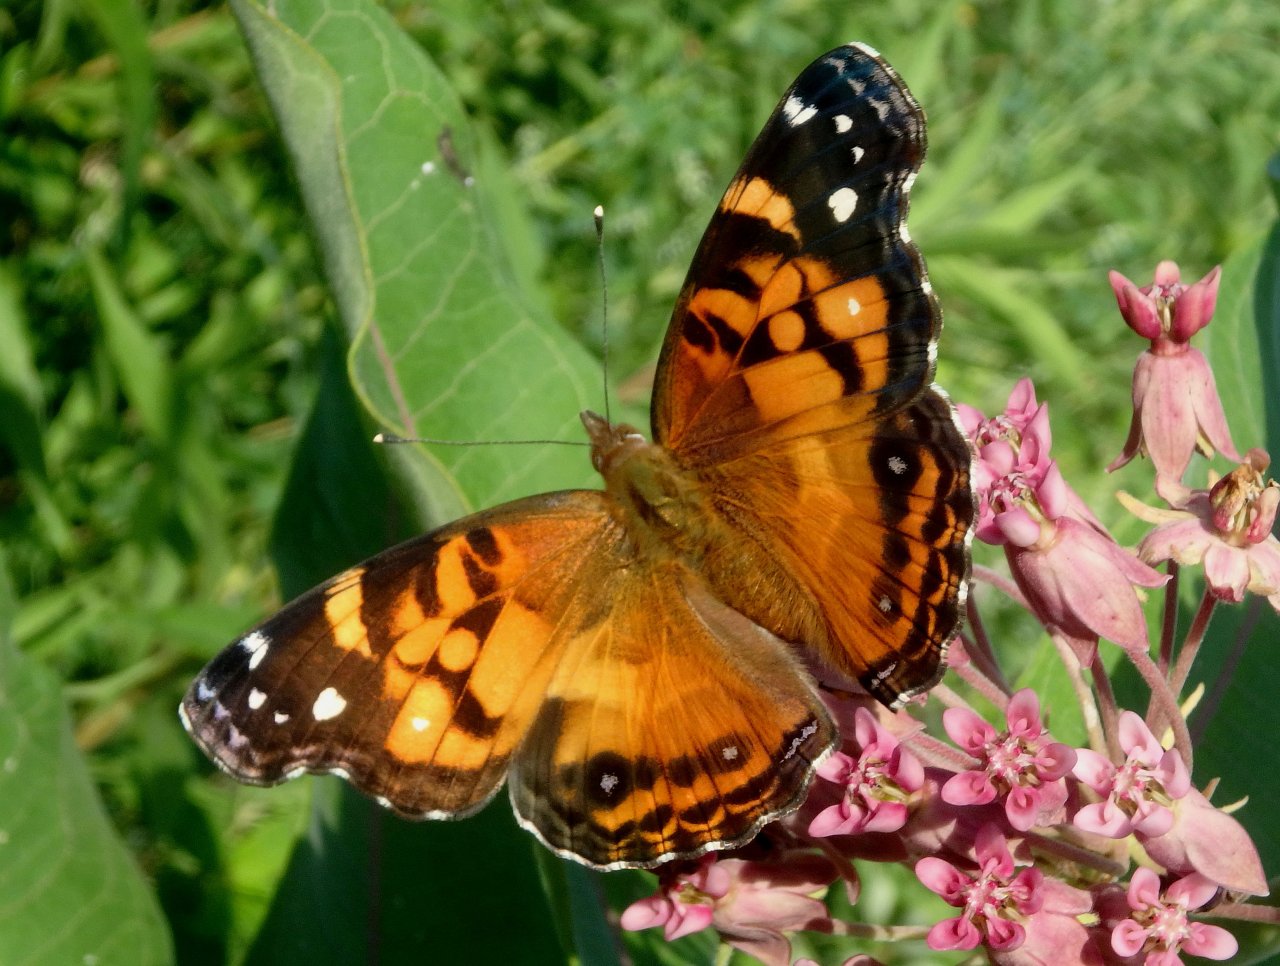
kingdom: Animalia
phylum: Arthropoda
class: Insecta
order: Lepidoptera
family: Nymphalidae
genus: Vanessa
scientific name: Vanessa virginiensis
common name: American Lady
